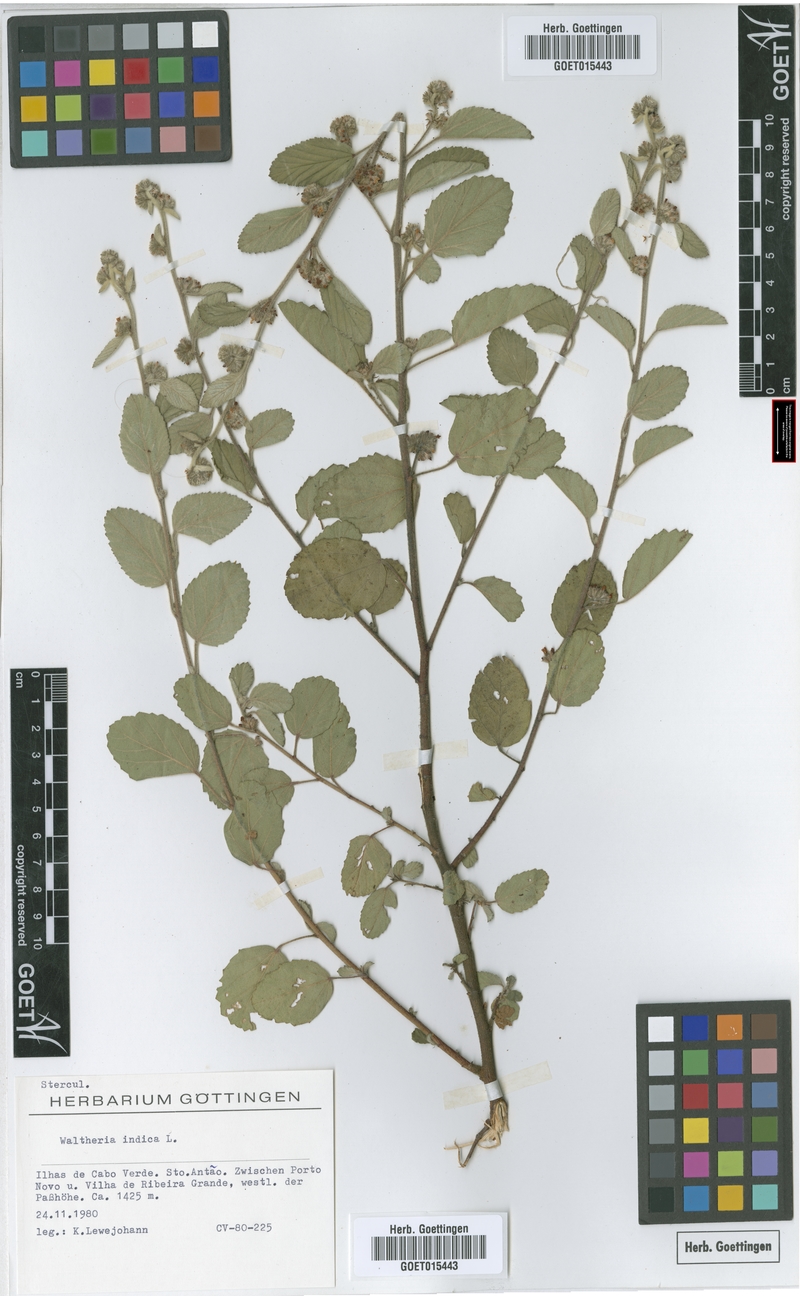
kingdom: Plantae
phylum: Tracheophyta
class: Magnoliopsida
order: Malvales
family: Malvaceae
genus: Waltheria
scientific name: Waltheria indica
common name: Leather-coat
